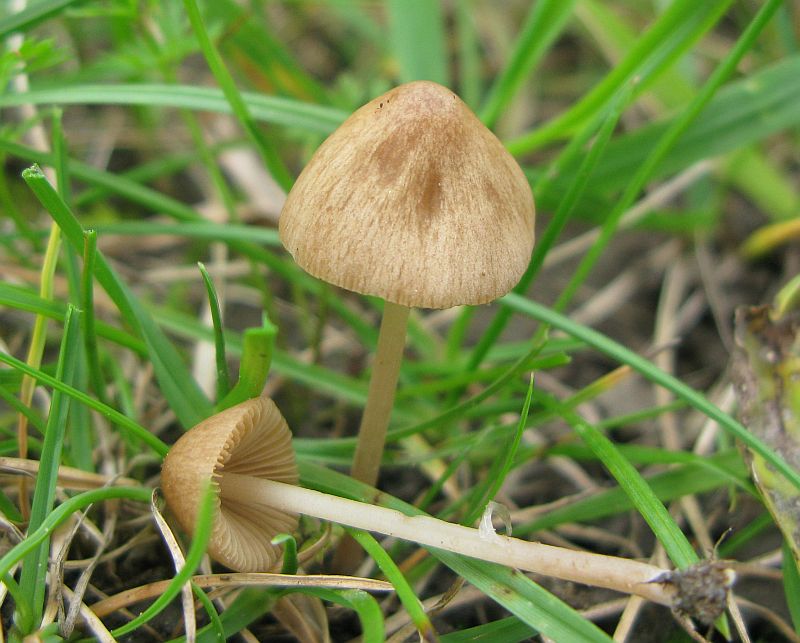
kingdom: Fungi
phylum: Basidiomycota
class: Agaricomycetes
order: Agaricales
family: Bolbitiaceae
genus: Conocybe
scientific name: Conocybe semiglobata
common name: halvkugleformet keglehat
